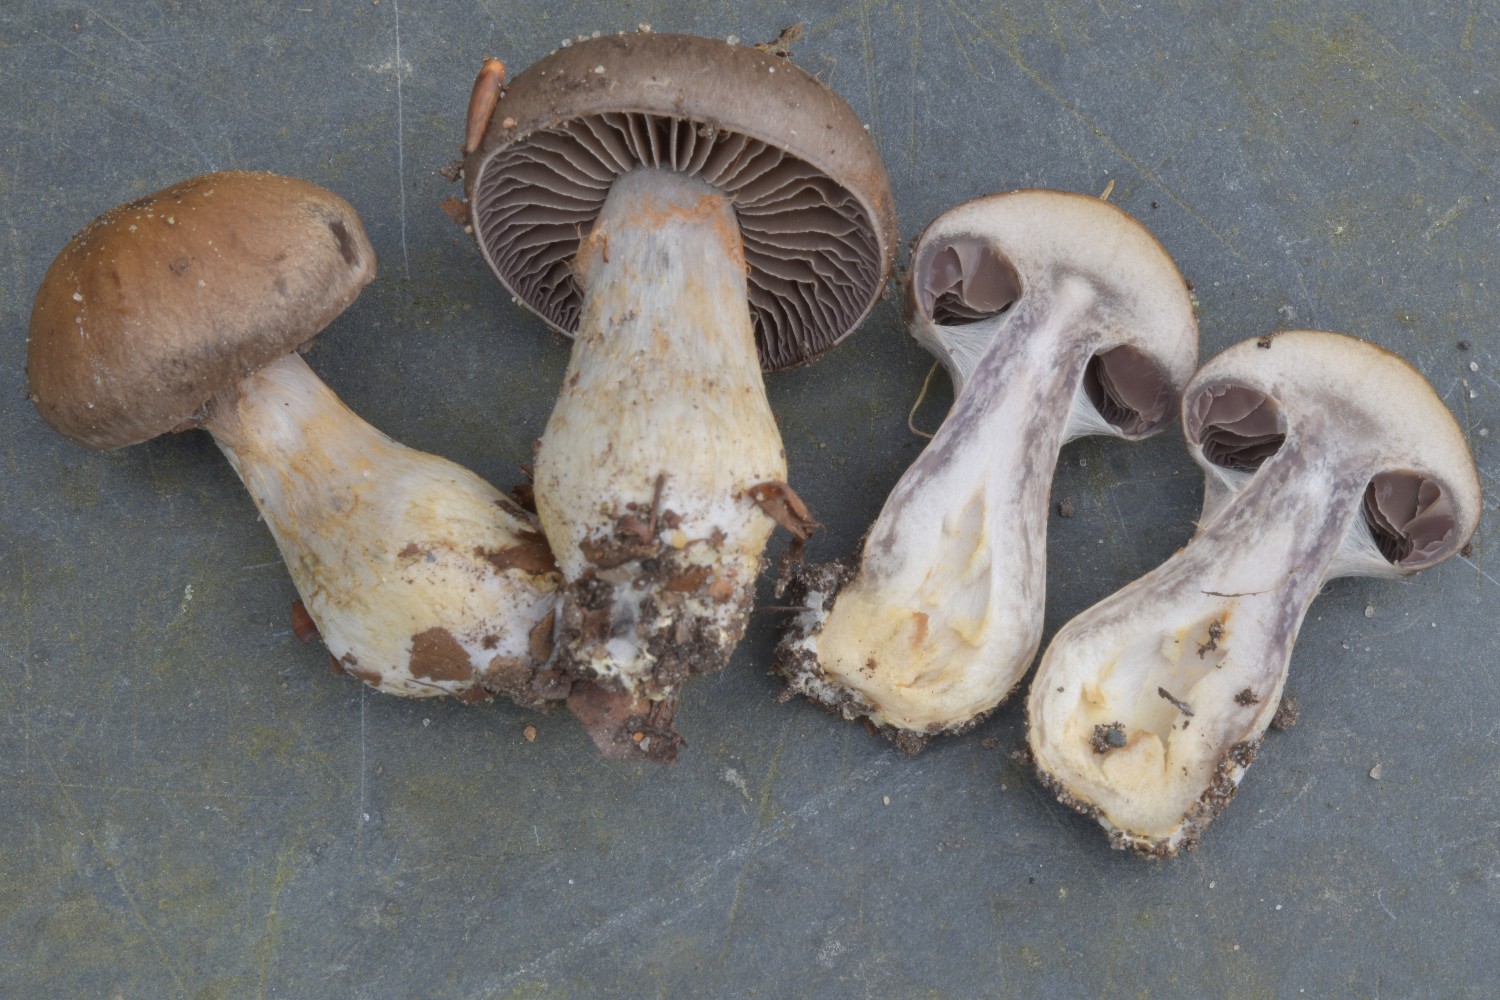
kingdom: Fungi
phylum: Basidiomycota
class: Agaricomycetes
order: Agaricales
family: Cortinariaceae
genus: Cortinarius
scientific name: Cortinarius
